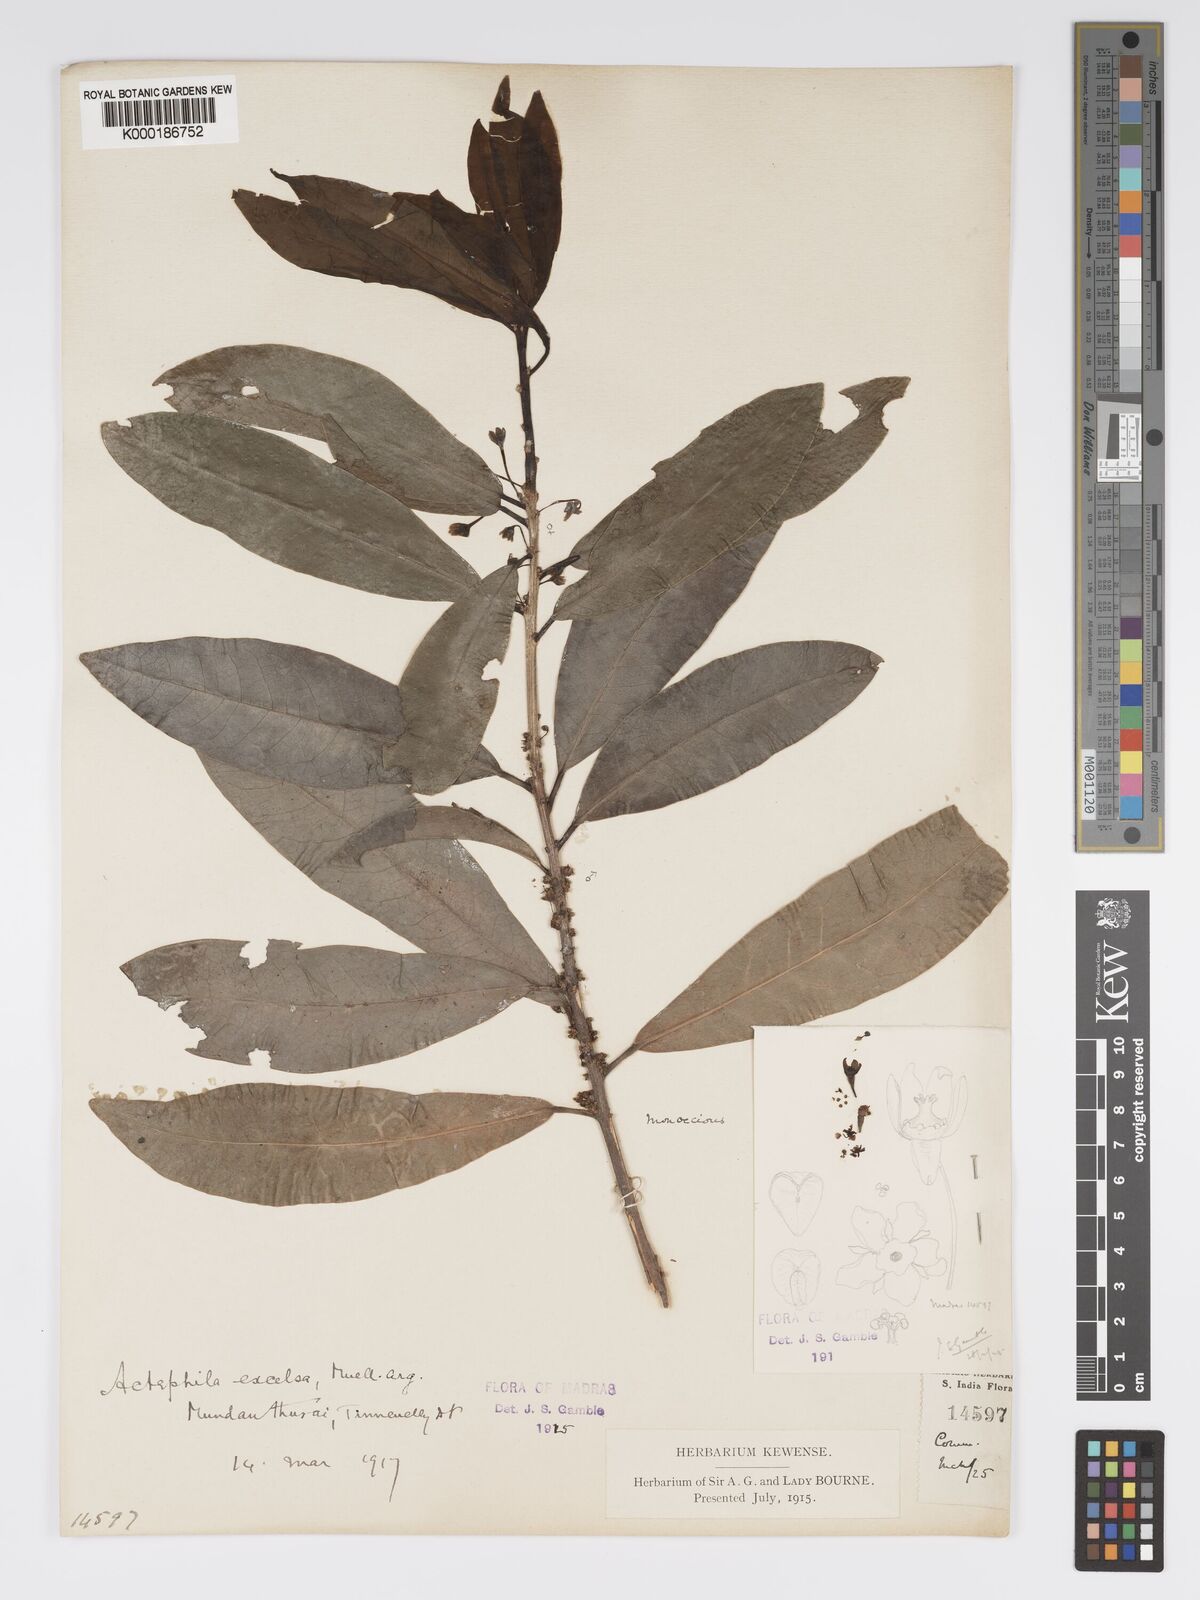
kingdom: Plantae
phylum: Tracheophyta
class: Magnoliopsida
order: Malpighiales
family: Phyllanthaceae
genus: Actephila
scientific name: Actephila excelsa
